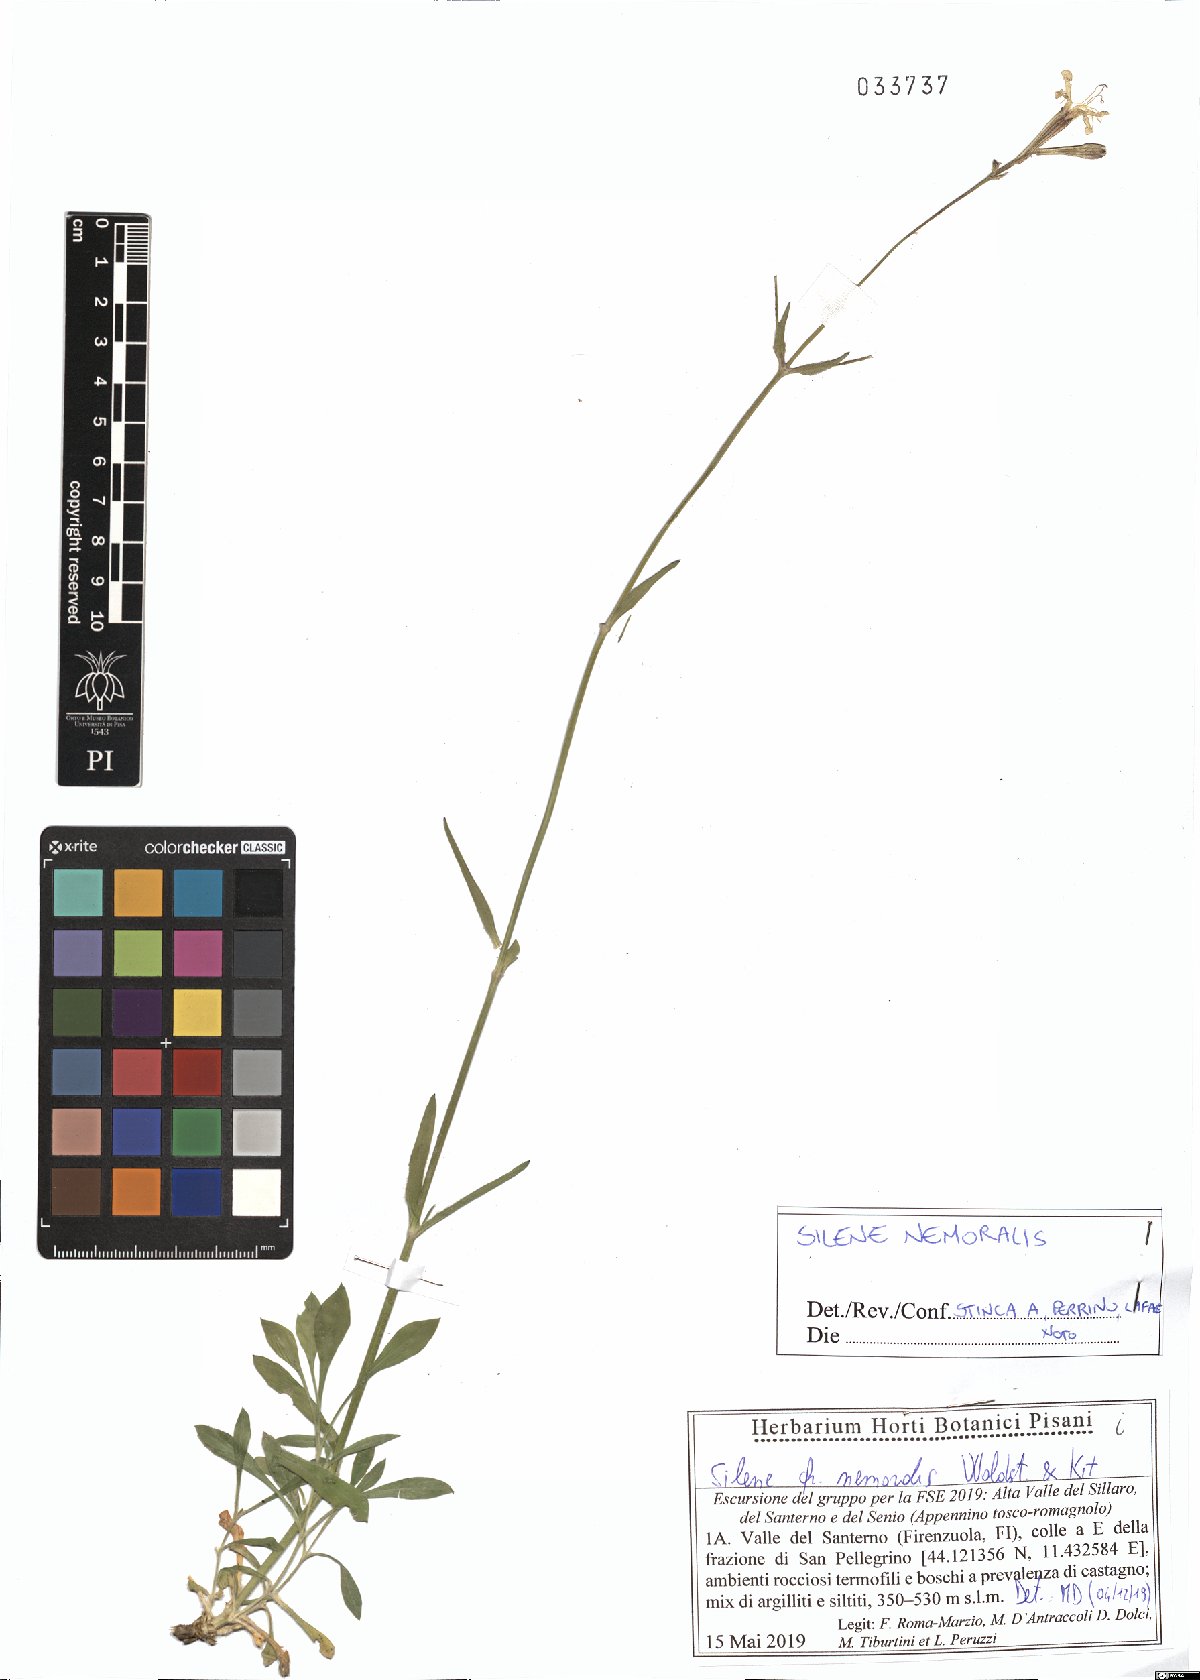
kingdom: Plantae
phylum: Tracheophyta
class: Magnoliopsida
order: Caryophyllales
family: Caryophyllaceae
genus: Silene
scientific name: Silene nemoralis
